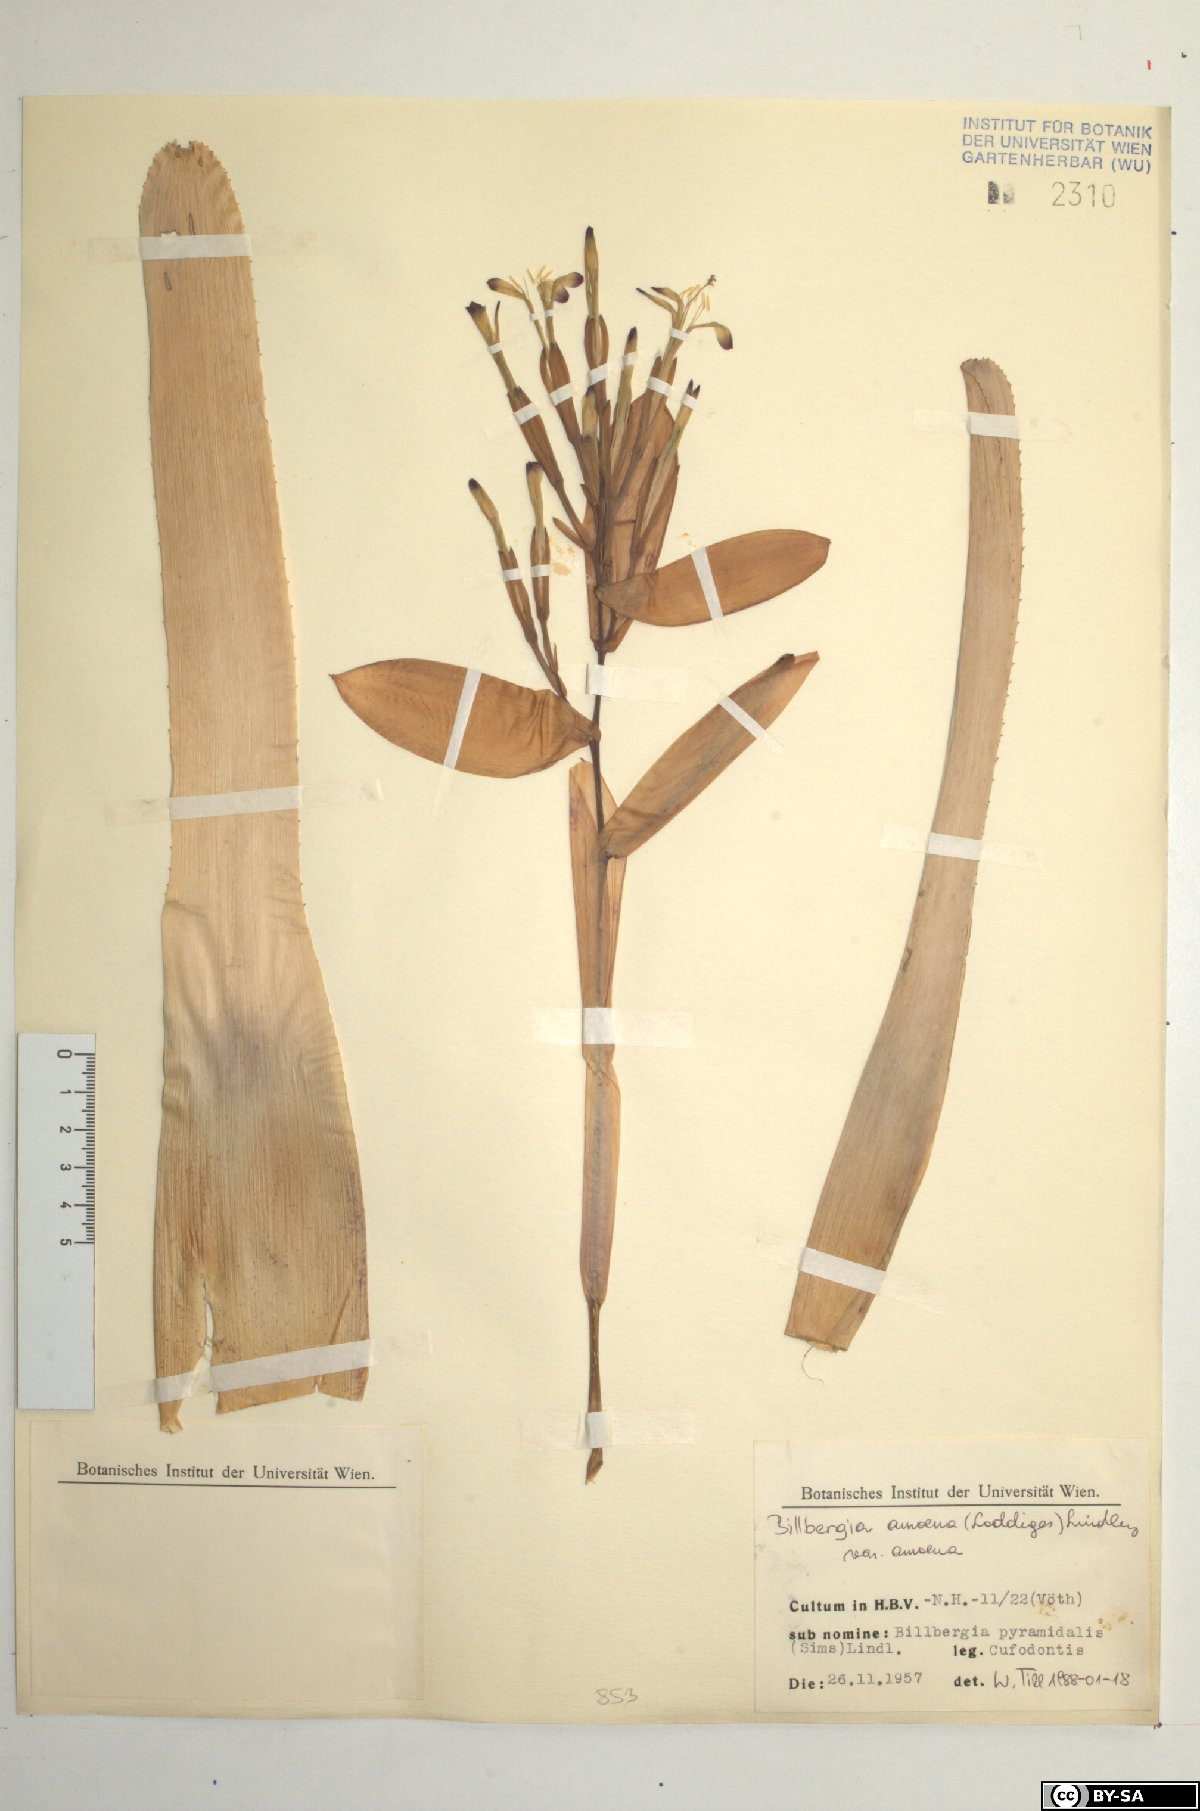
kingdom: Plantae
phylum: Tracheophyta
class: Liliopsida
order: Poales
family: Bromeliaceae
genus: Tillandsia
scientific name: Tillandsia tenuifolia
